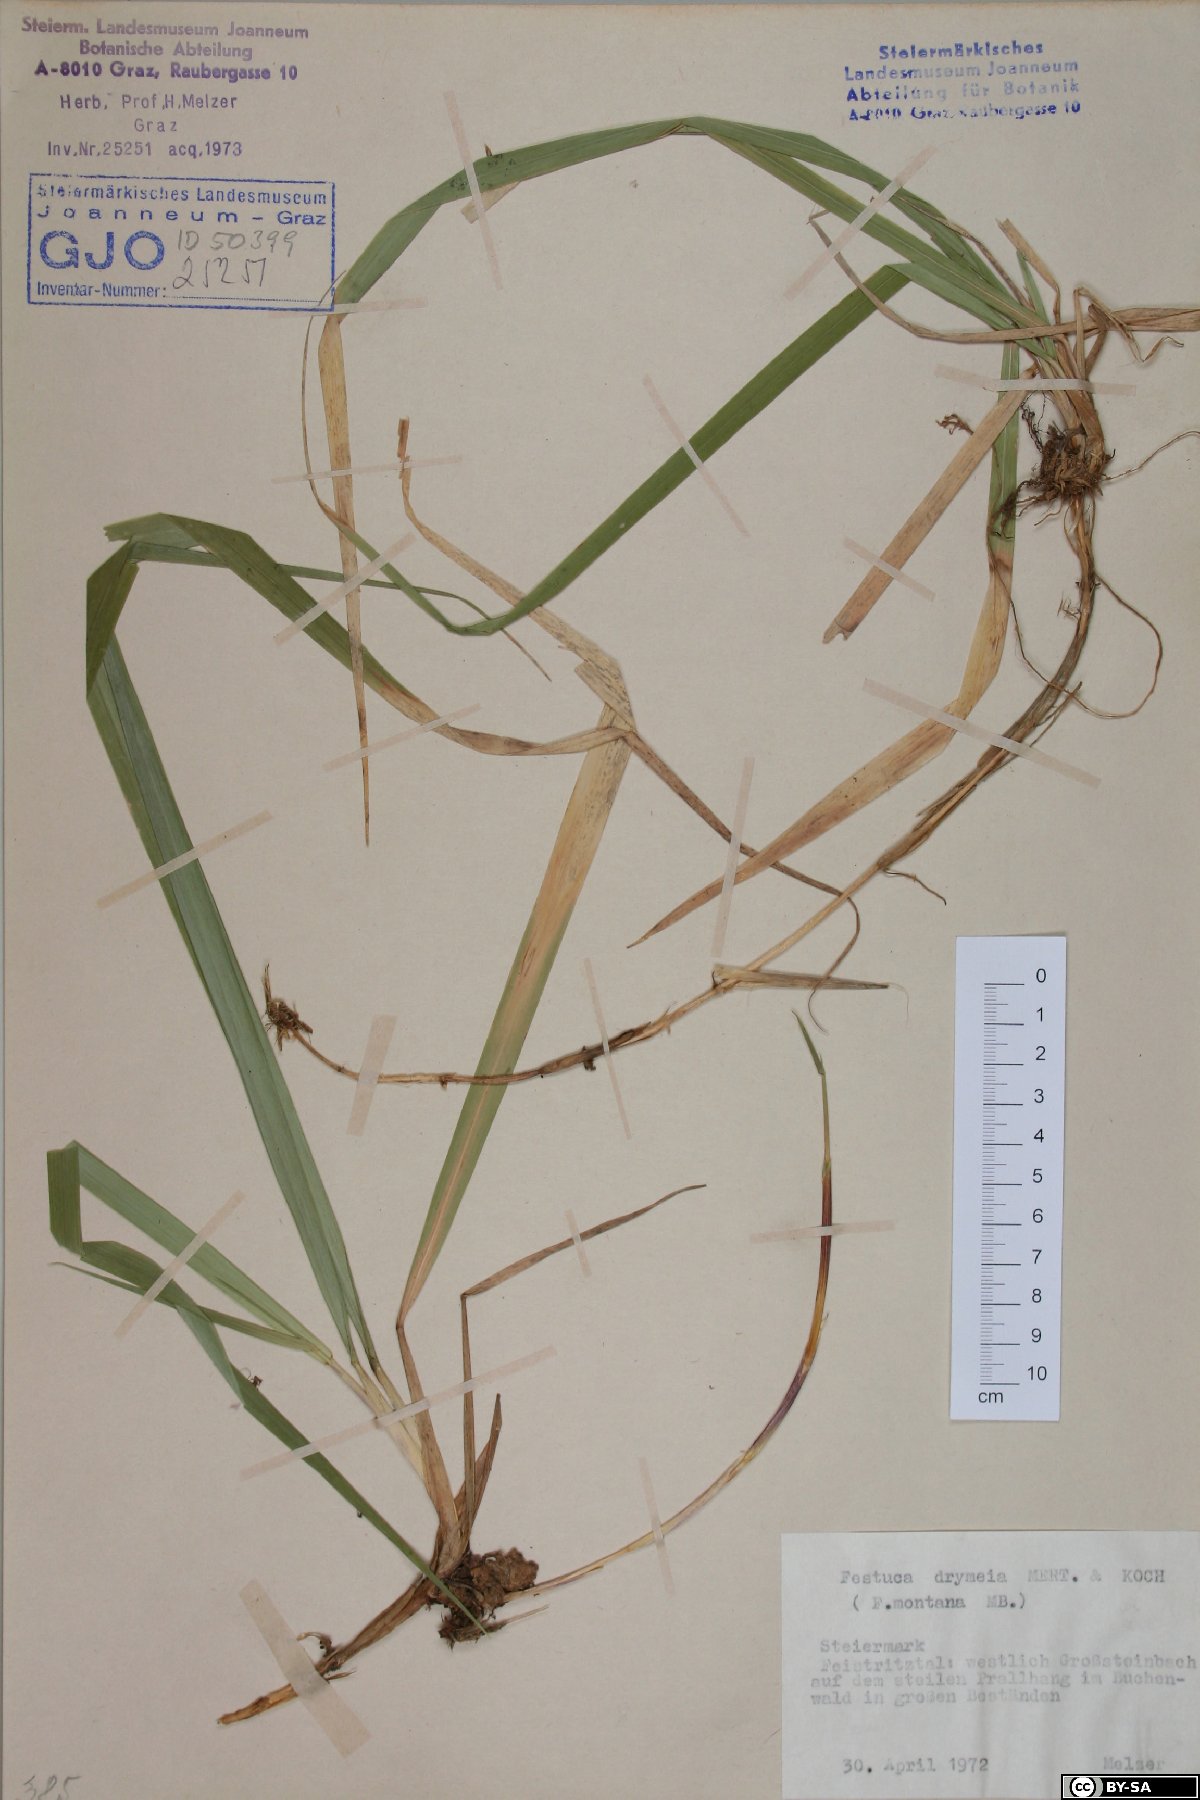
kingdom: Plantae
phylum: Tracheophyta
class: Liliopsida
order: Poales
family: Poaceae
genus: Festuca
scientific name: Festuca drymeja
